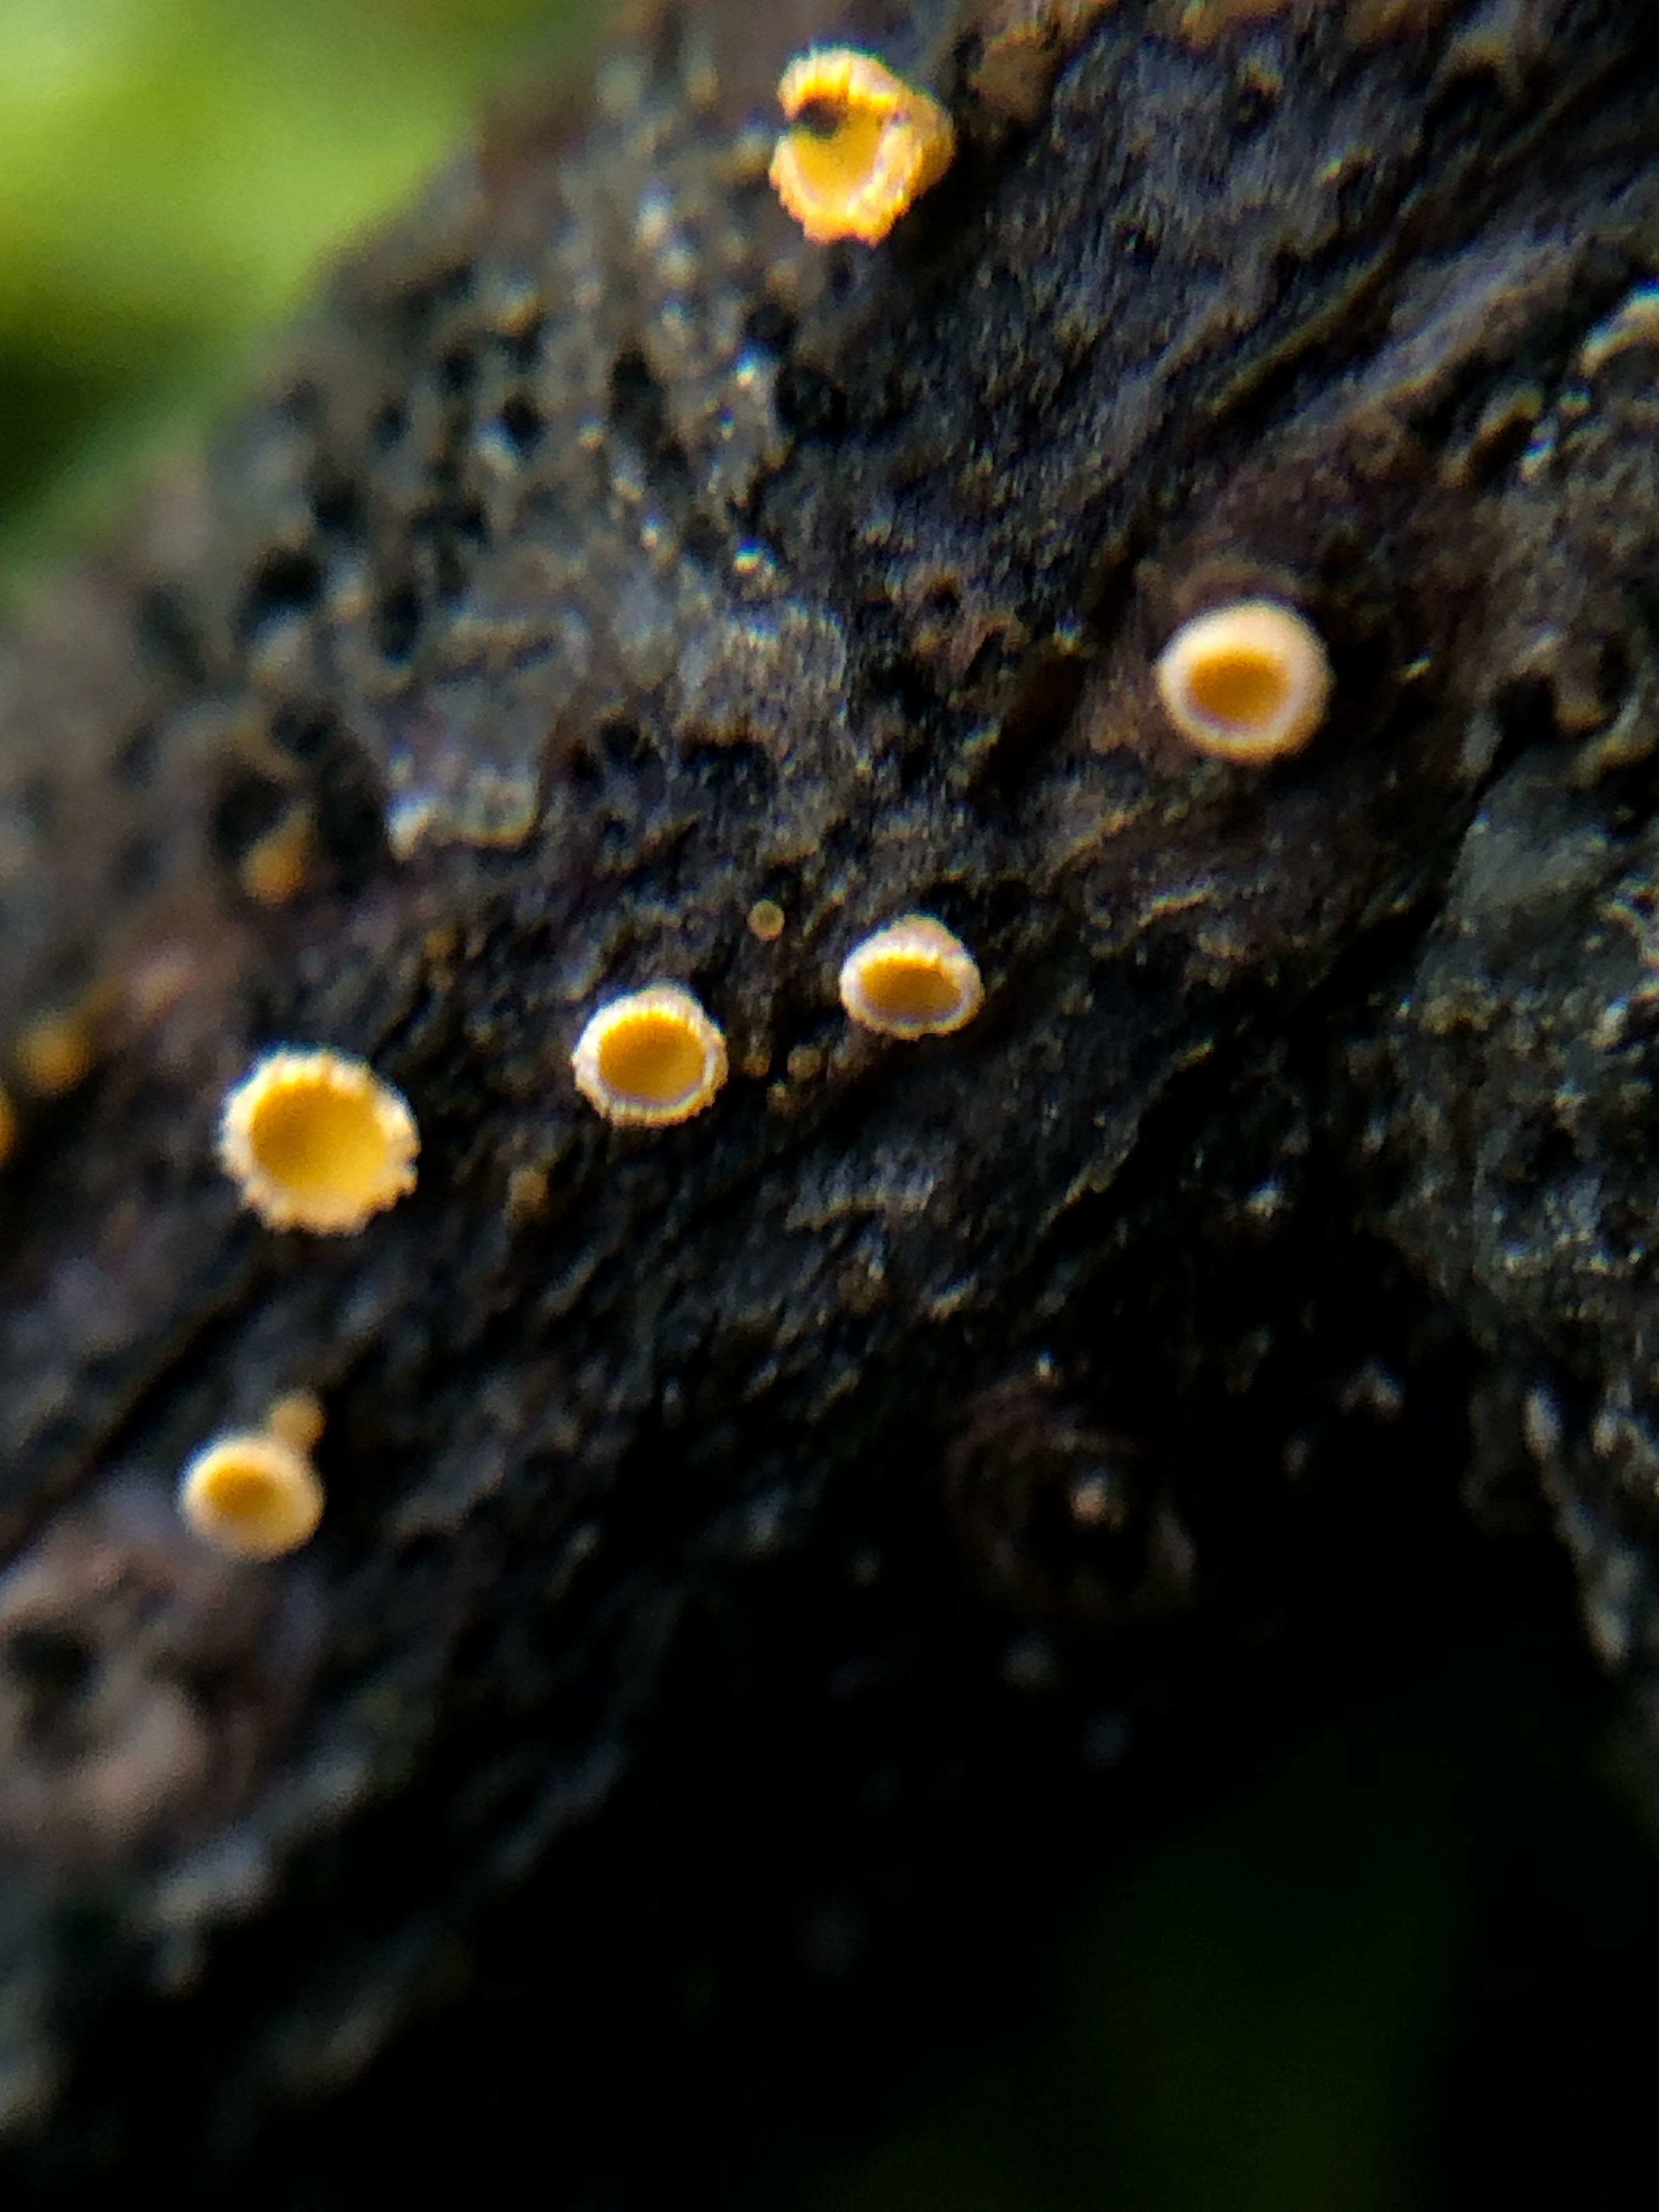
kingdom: Fungi
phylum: Ascomycota
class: Leotiomycetes
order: Helotiales
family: Lachnaceae
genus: Lachnellula
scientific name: Lachnellula
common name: frynseskive
